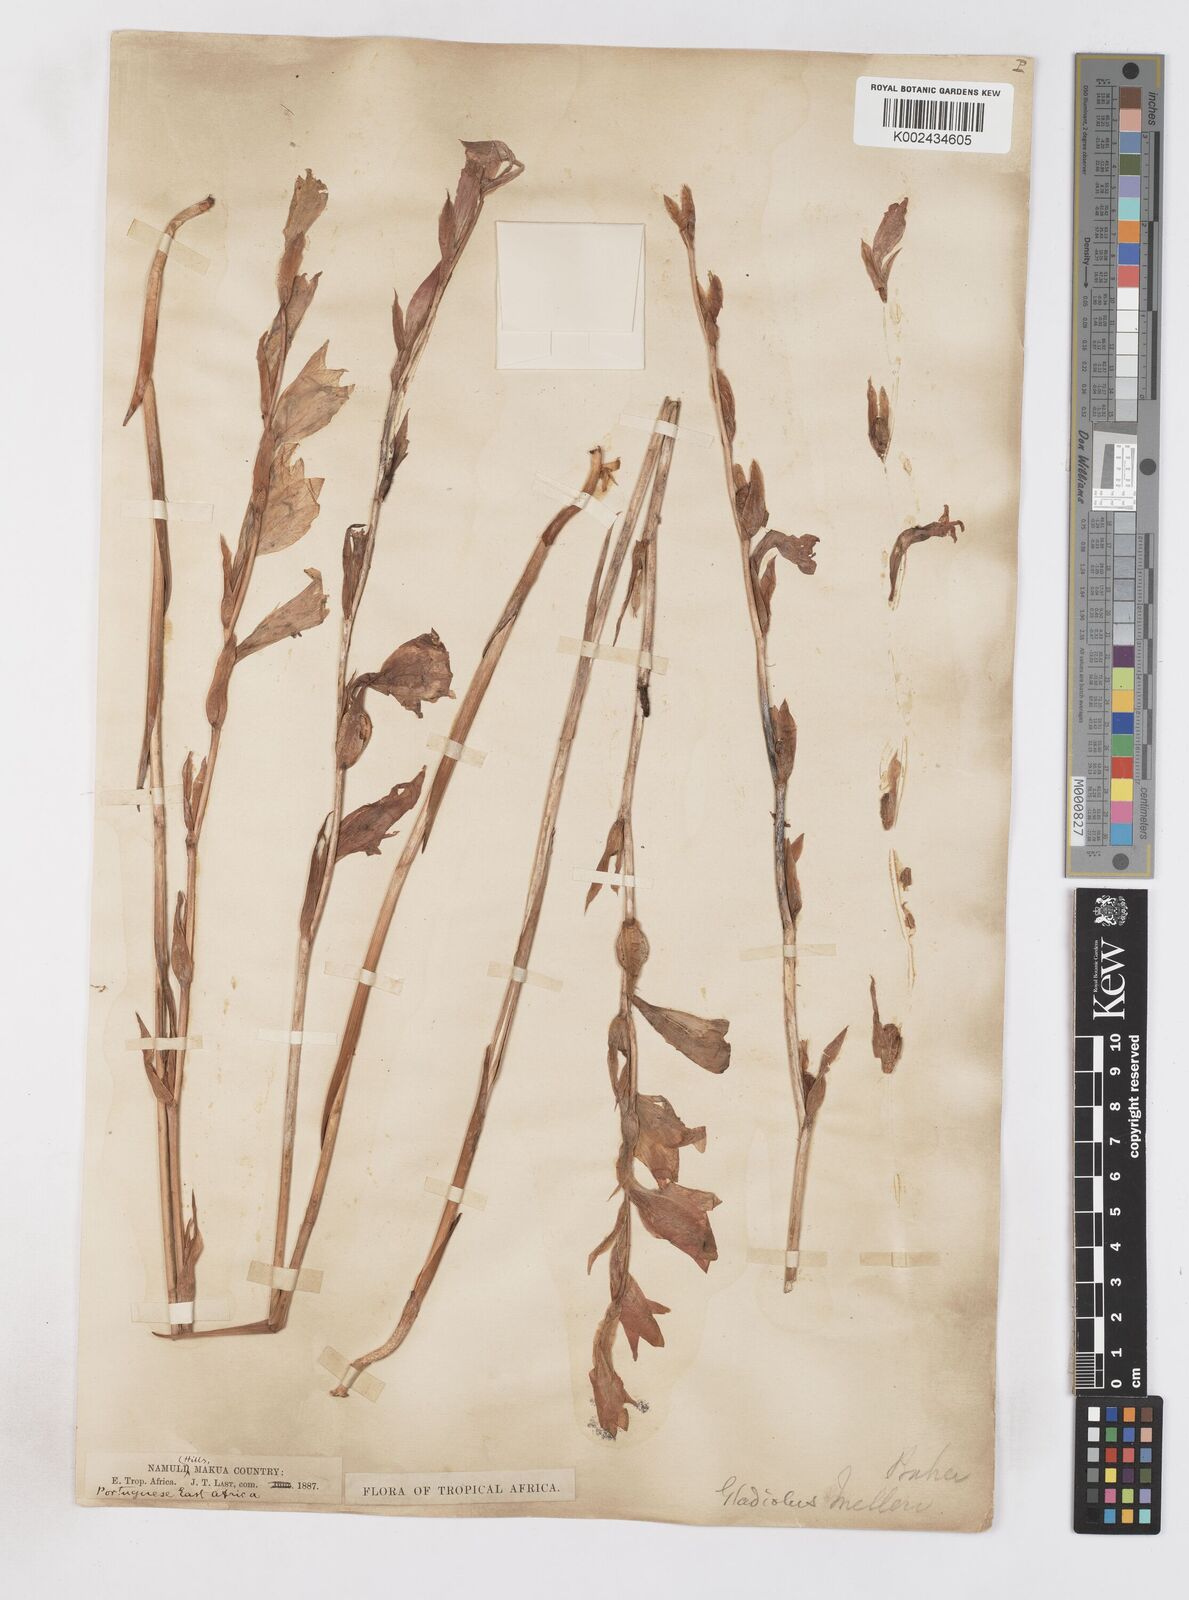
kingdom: Plantae
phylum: Tracheophyta
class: Liliopsida
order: Asparagales
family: Iridaceae
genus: Gladiolus
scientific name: Gladiolus melleri
